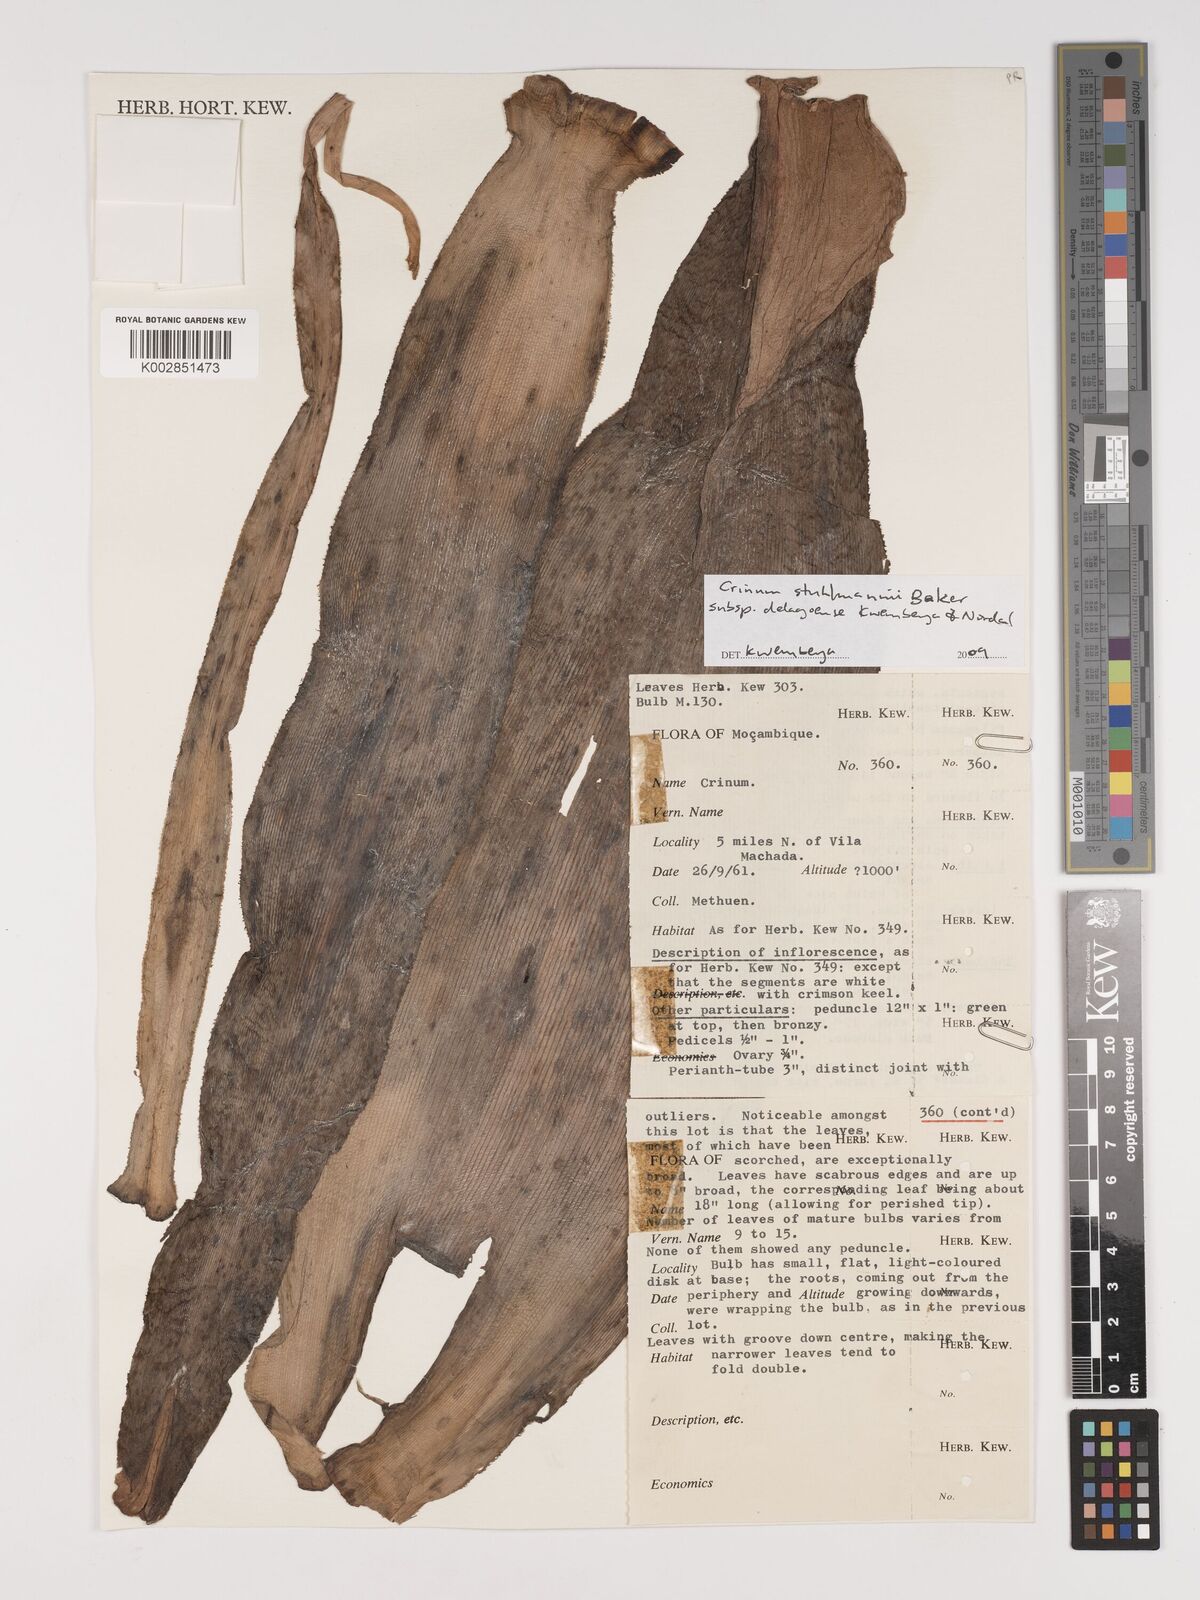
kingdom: Plantae
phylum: Tracheophyta
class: Liliopsida
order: Asparagales
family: Amaryllidaceae
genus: Crinum
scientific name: Crinum stuhlmannii
